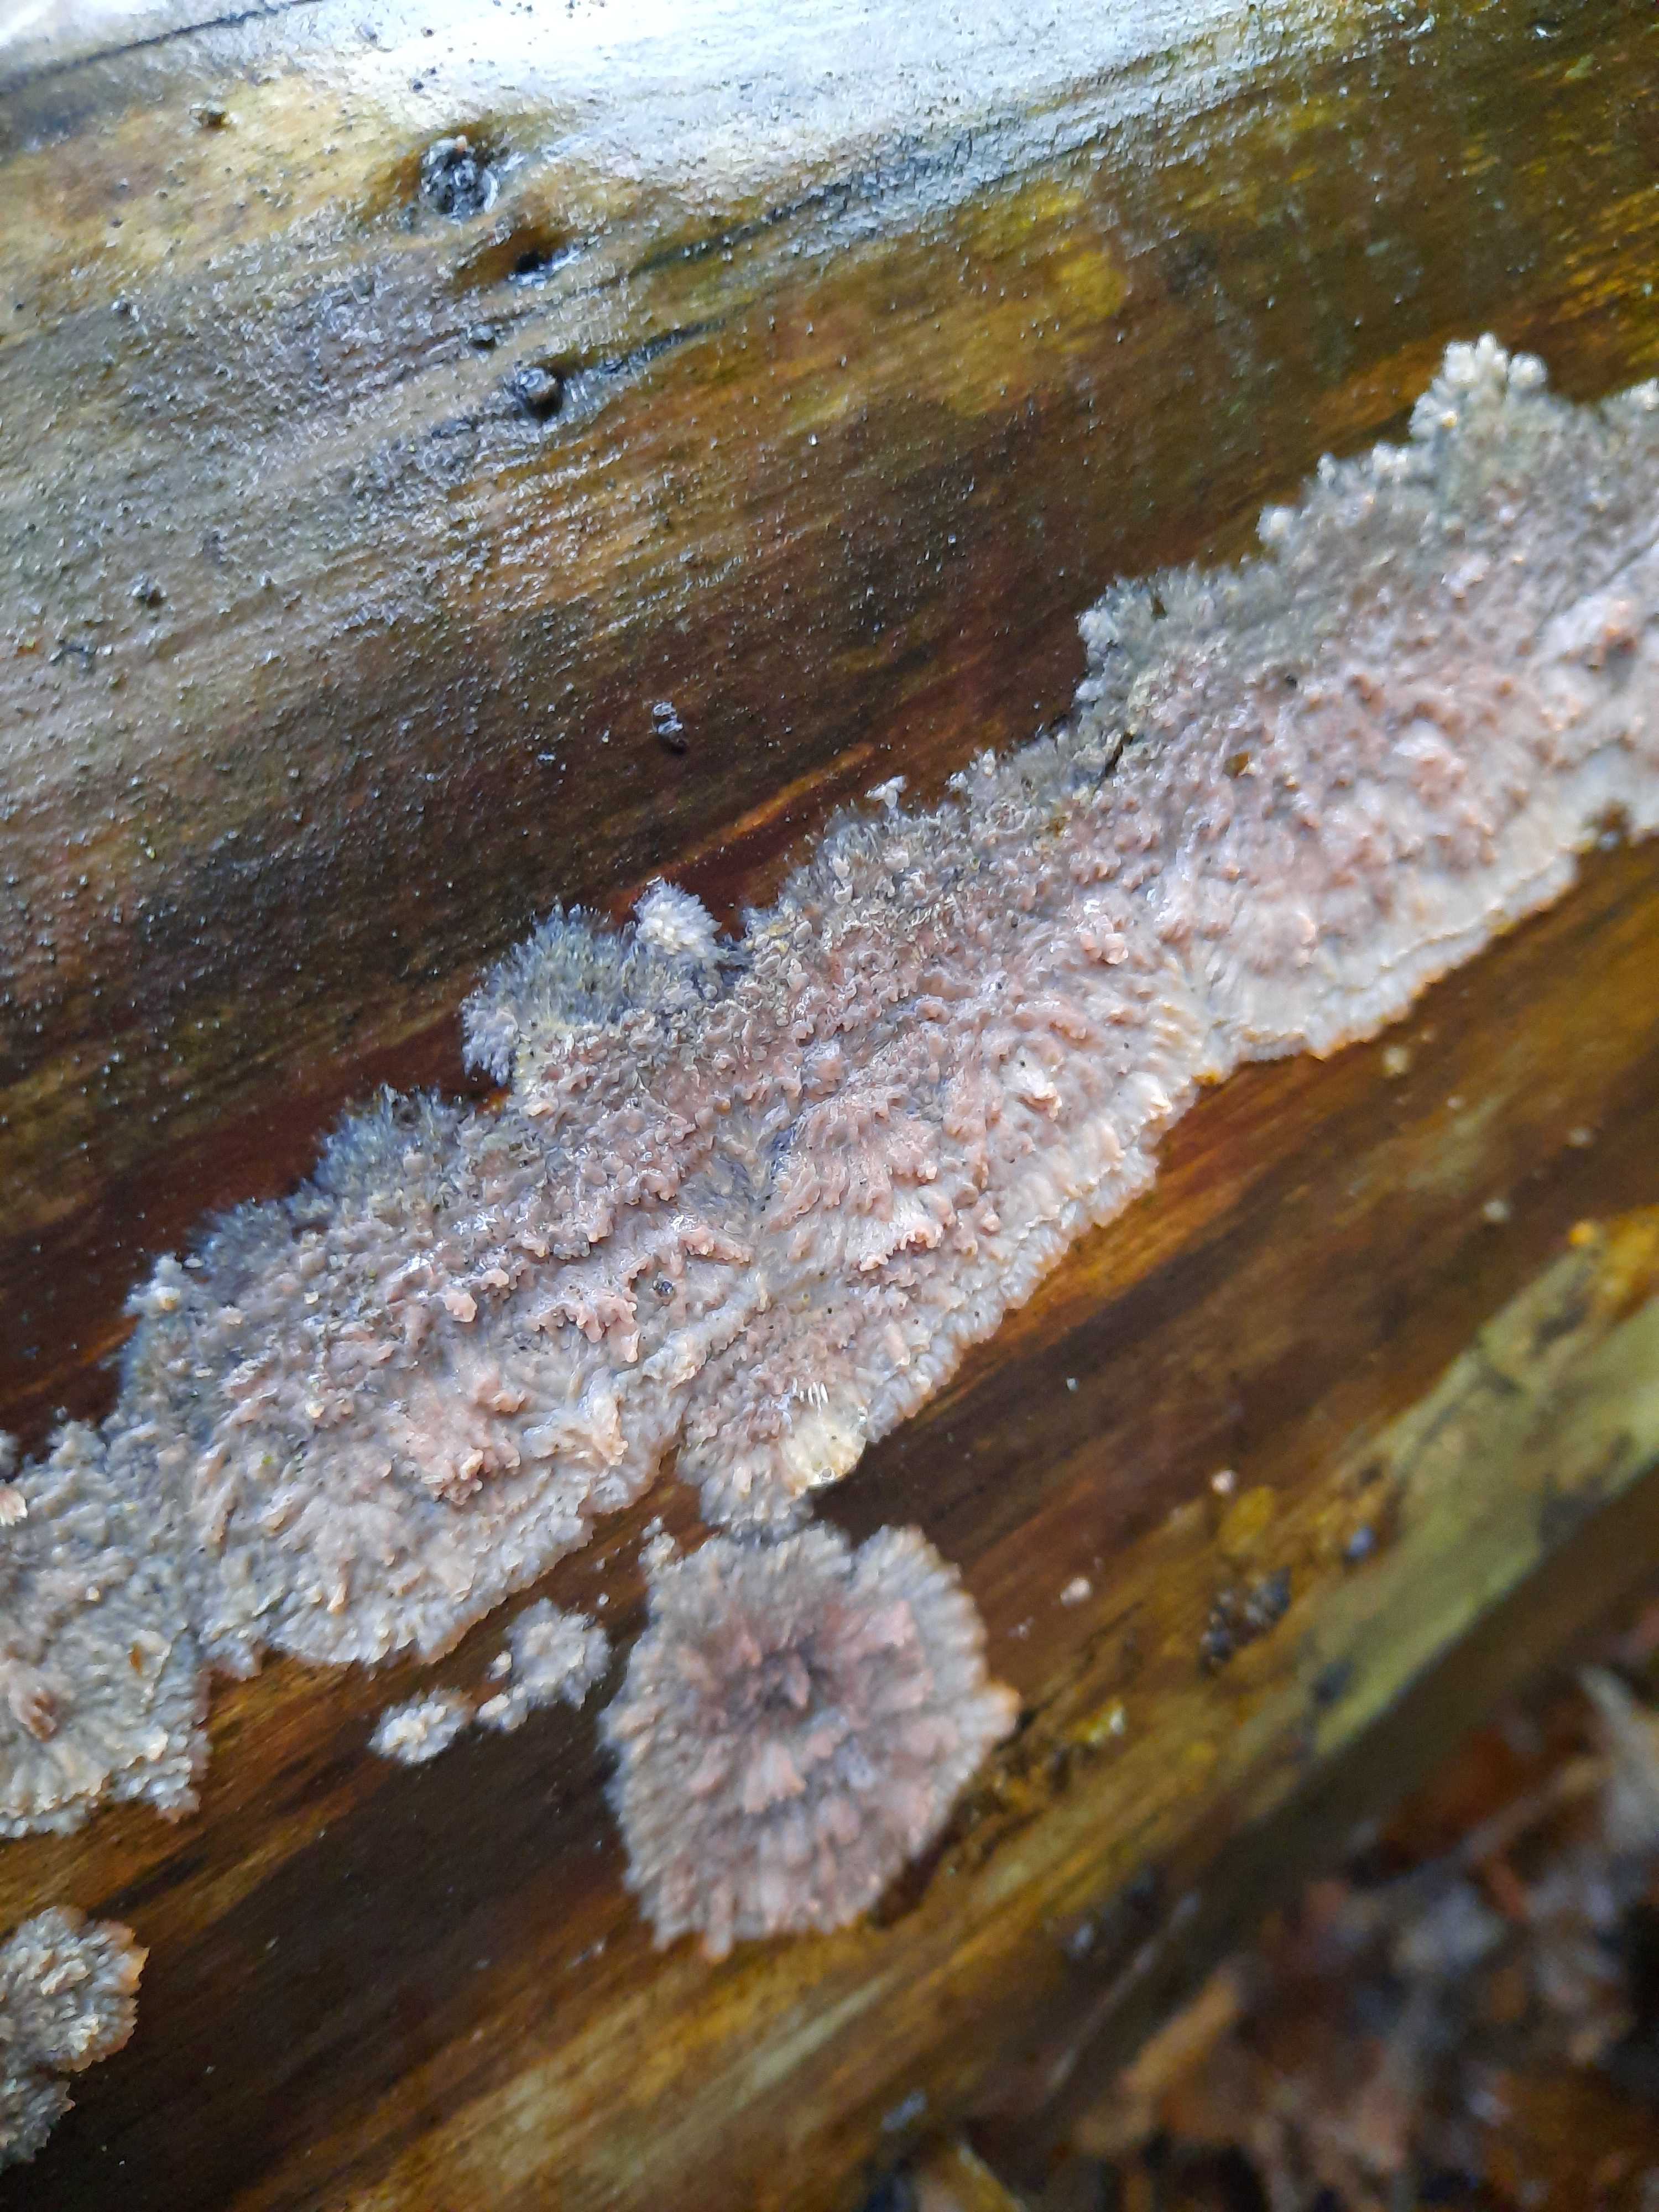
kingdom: Fungi
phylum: Basidiomycota
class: Agaricomycetes
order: Polyporales
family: Meruliaceae
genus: Phlebia
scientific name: Phlebia radiata
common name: stråle-åresvamp
